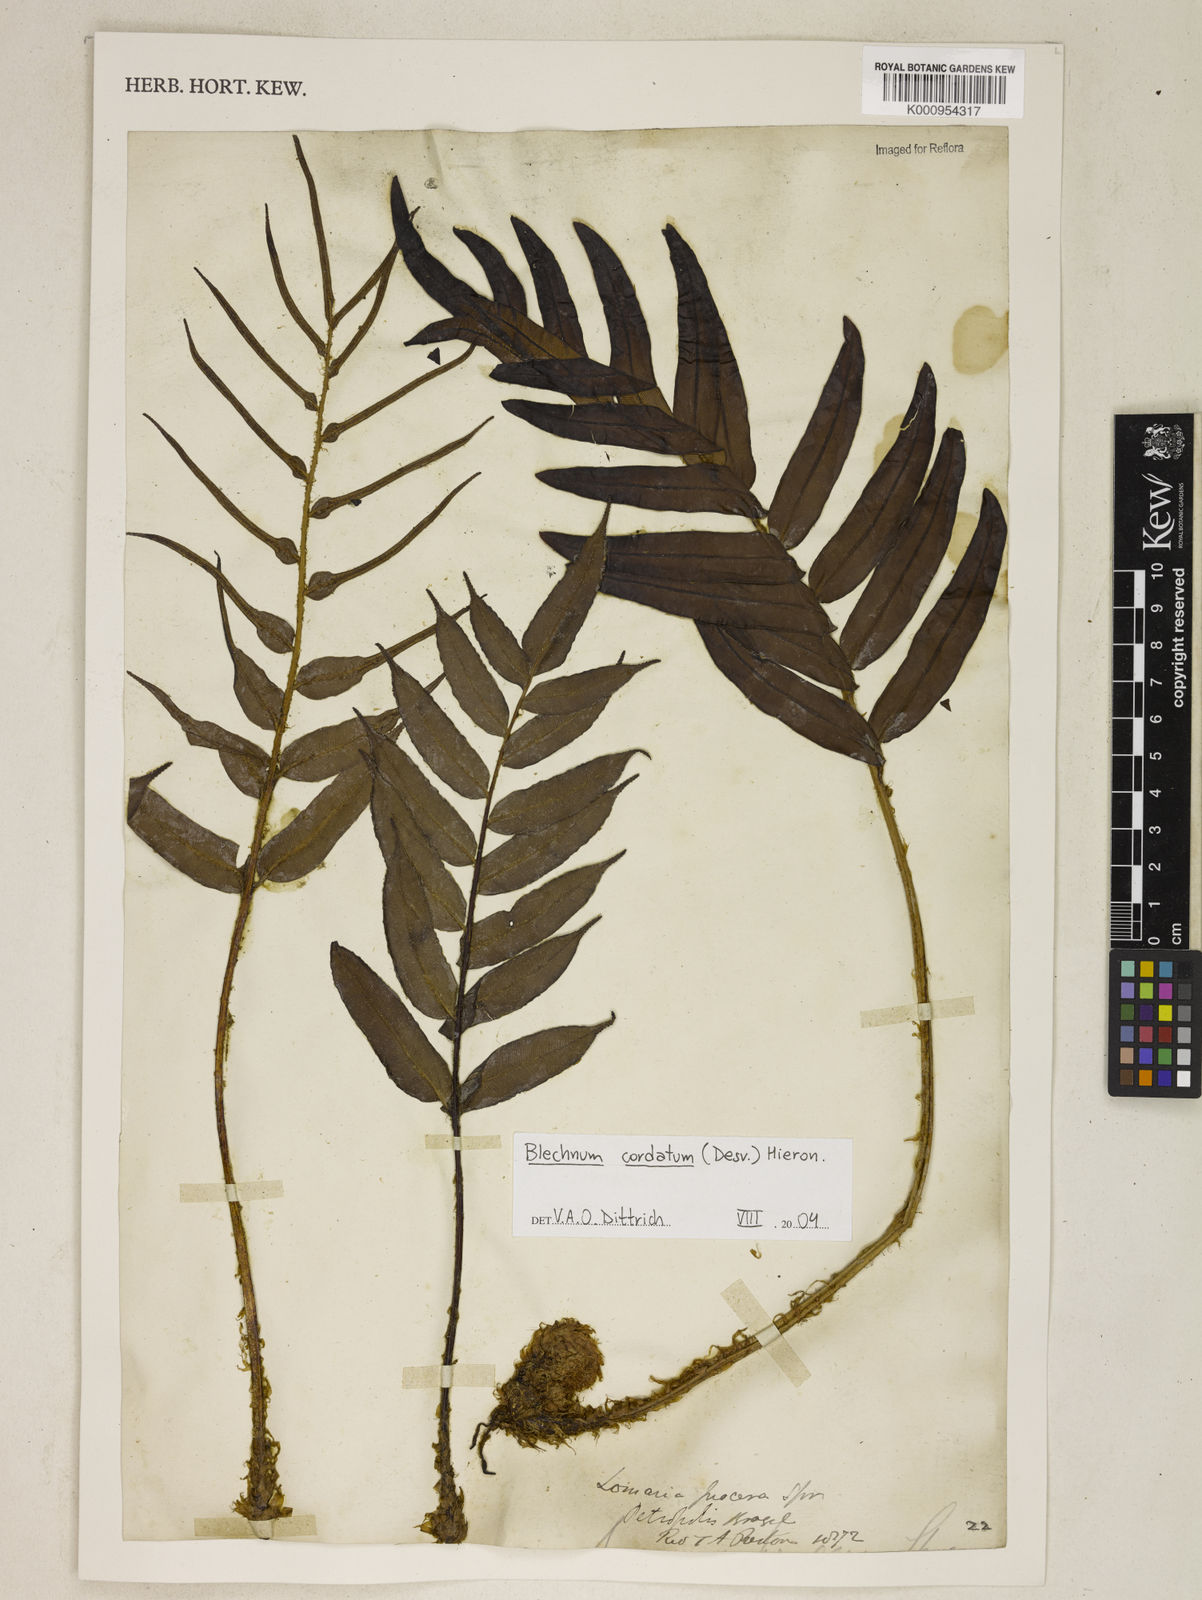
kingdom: Plantae
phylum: Tracheophyta
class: Polypodiopsida
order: Polypodiales
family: Blechnaceae
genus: Parablechnum
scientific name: Parablechnum cordatum
